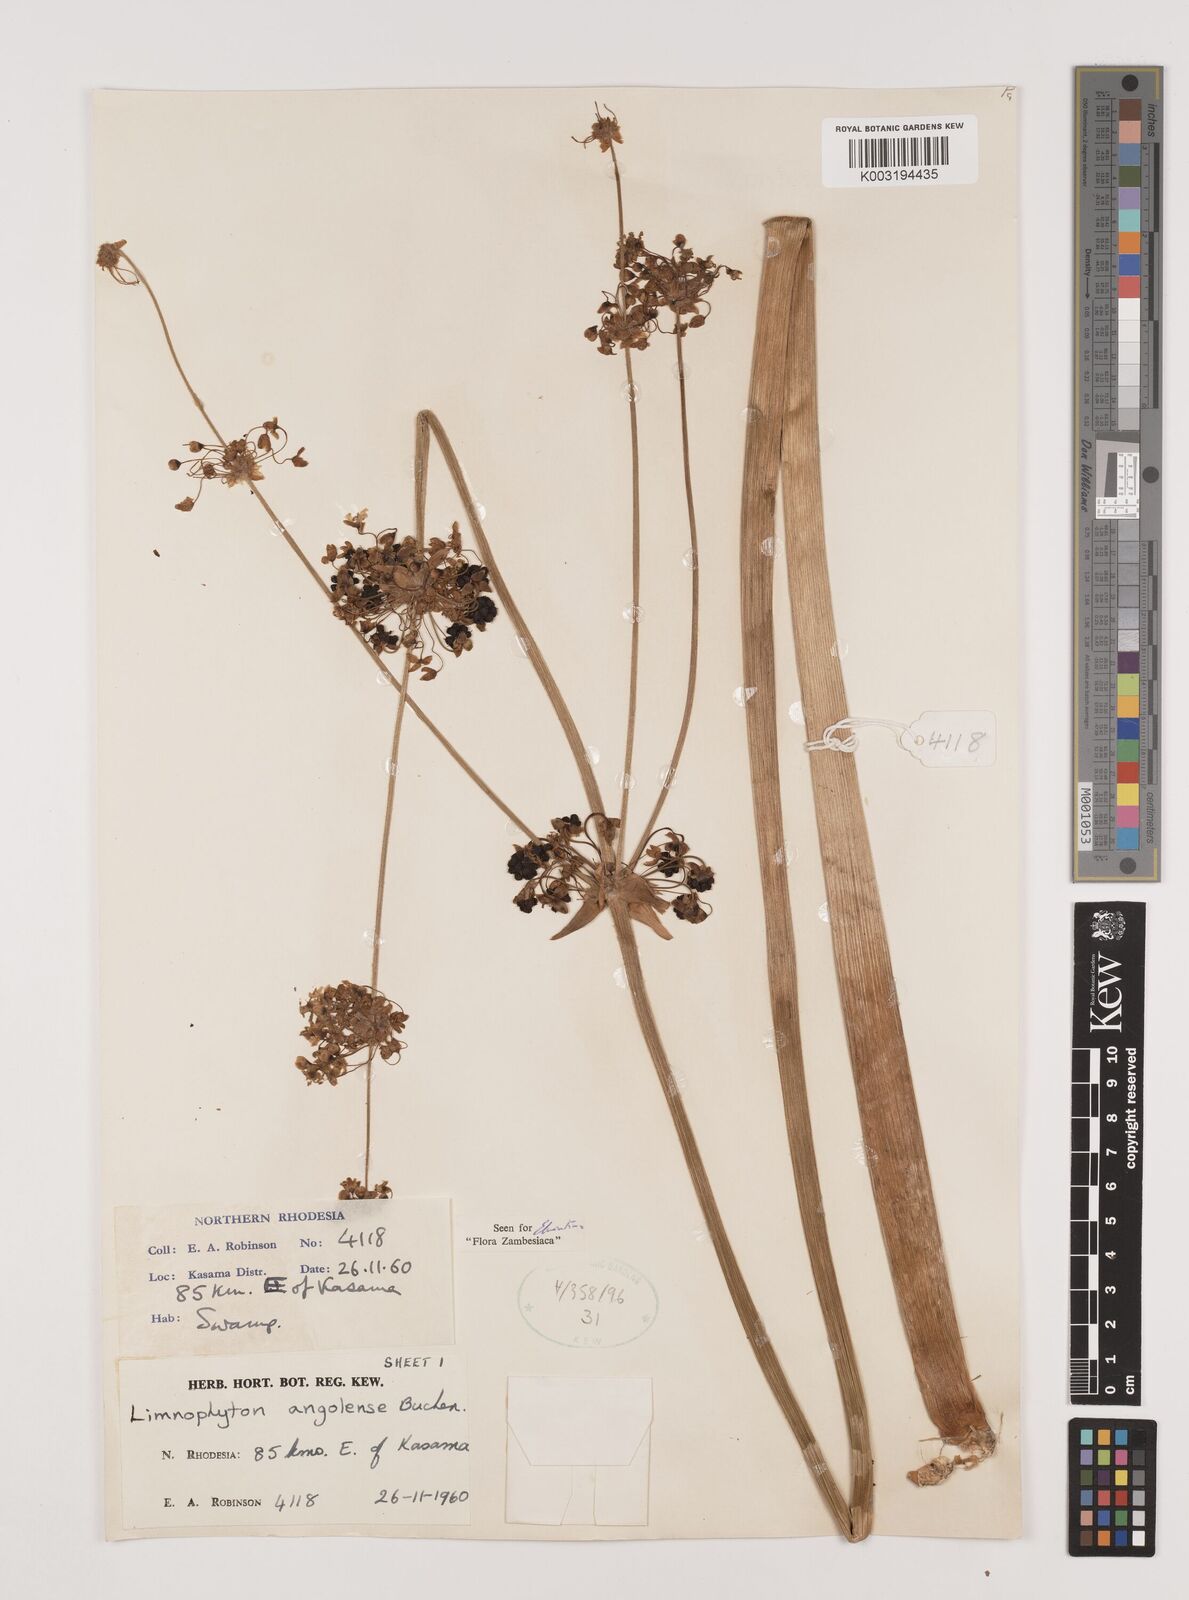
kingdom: Plantae
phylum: Tracheophyta
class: Liliopsida
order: Alismatales
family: Alismataceae
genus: Limnophyton
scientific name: Limnophyton
